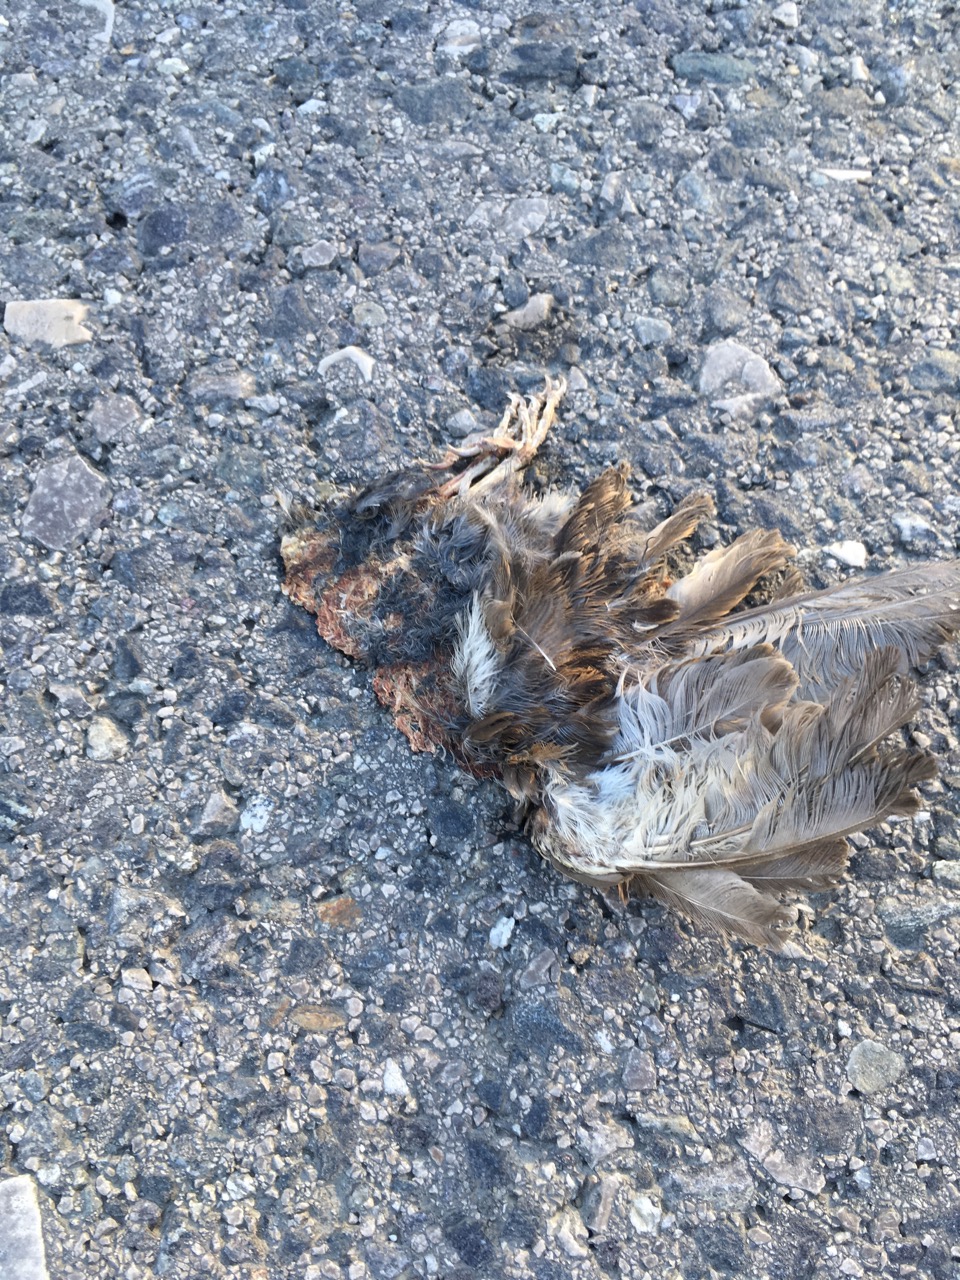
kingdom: Animalia
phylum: Chordata
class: Aves
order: Passeriformes
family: Passeridae
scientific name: Passeridae
